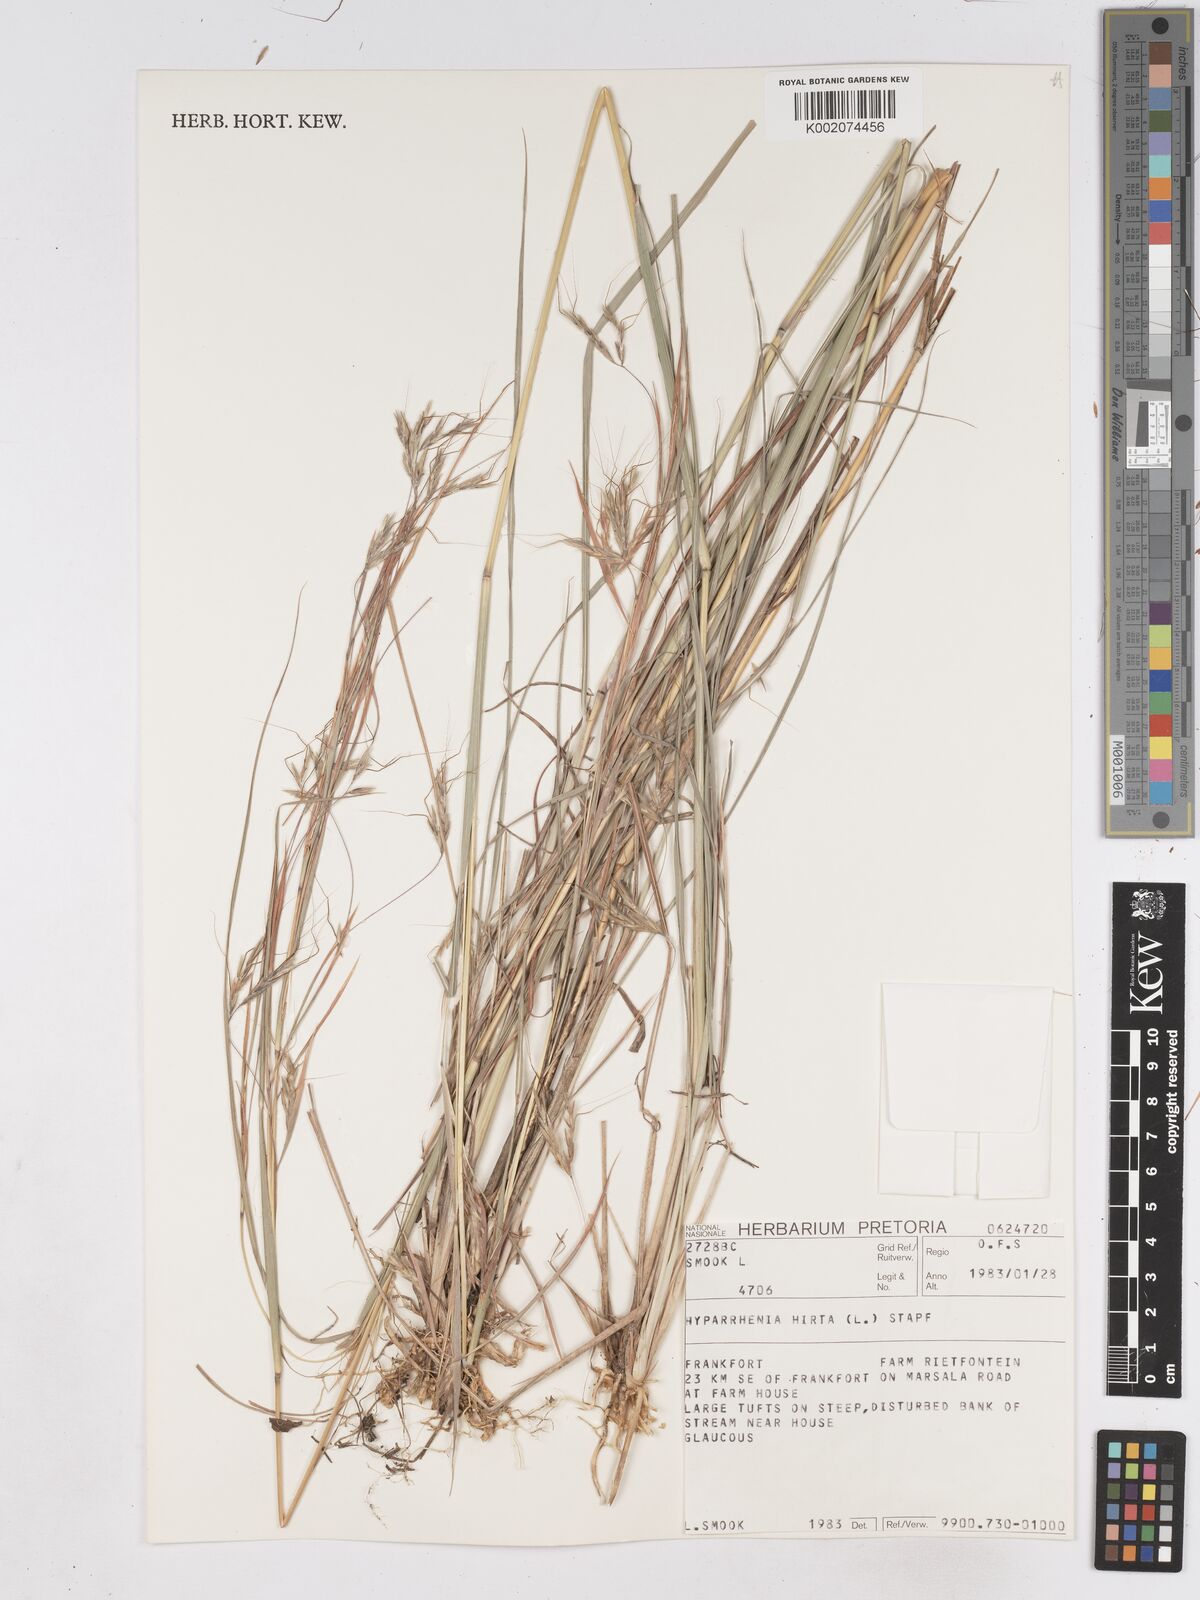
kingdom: Plantae
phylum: Tracheophyta
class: Liliopsida
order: Poales
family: Poaceae
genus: Hyparrhenia
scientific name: Hyparrhenia hirta
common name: Thatching grass
